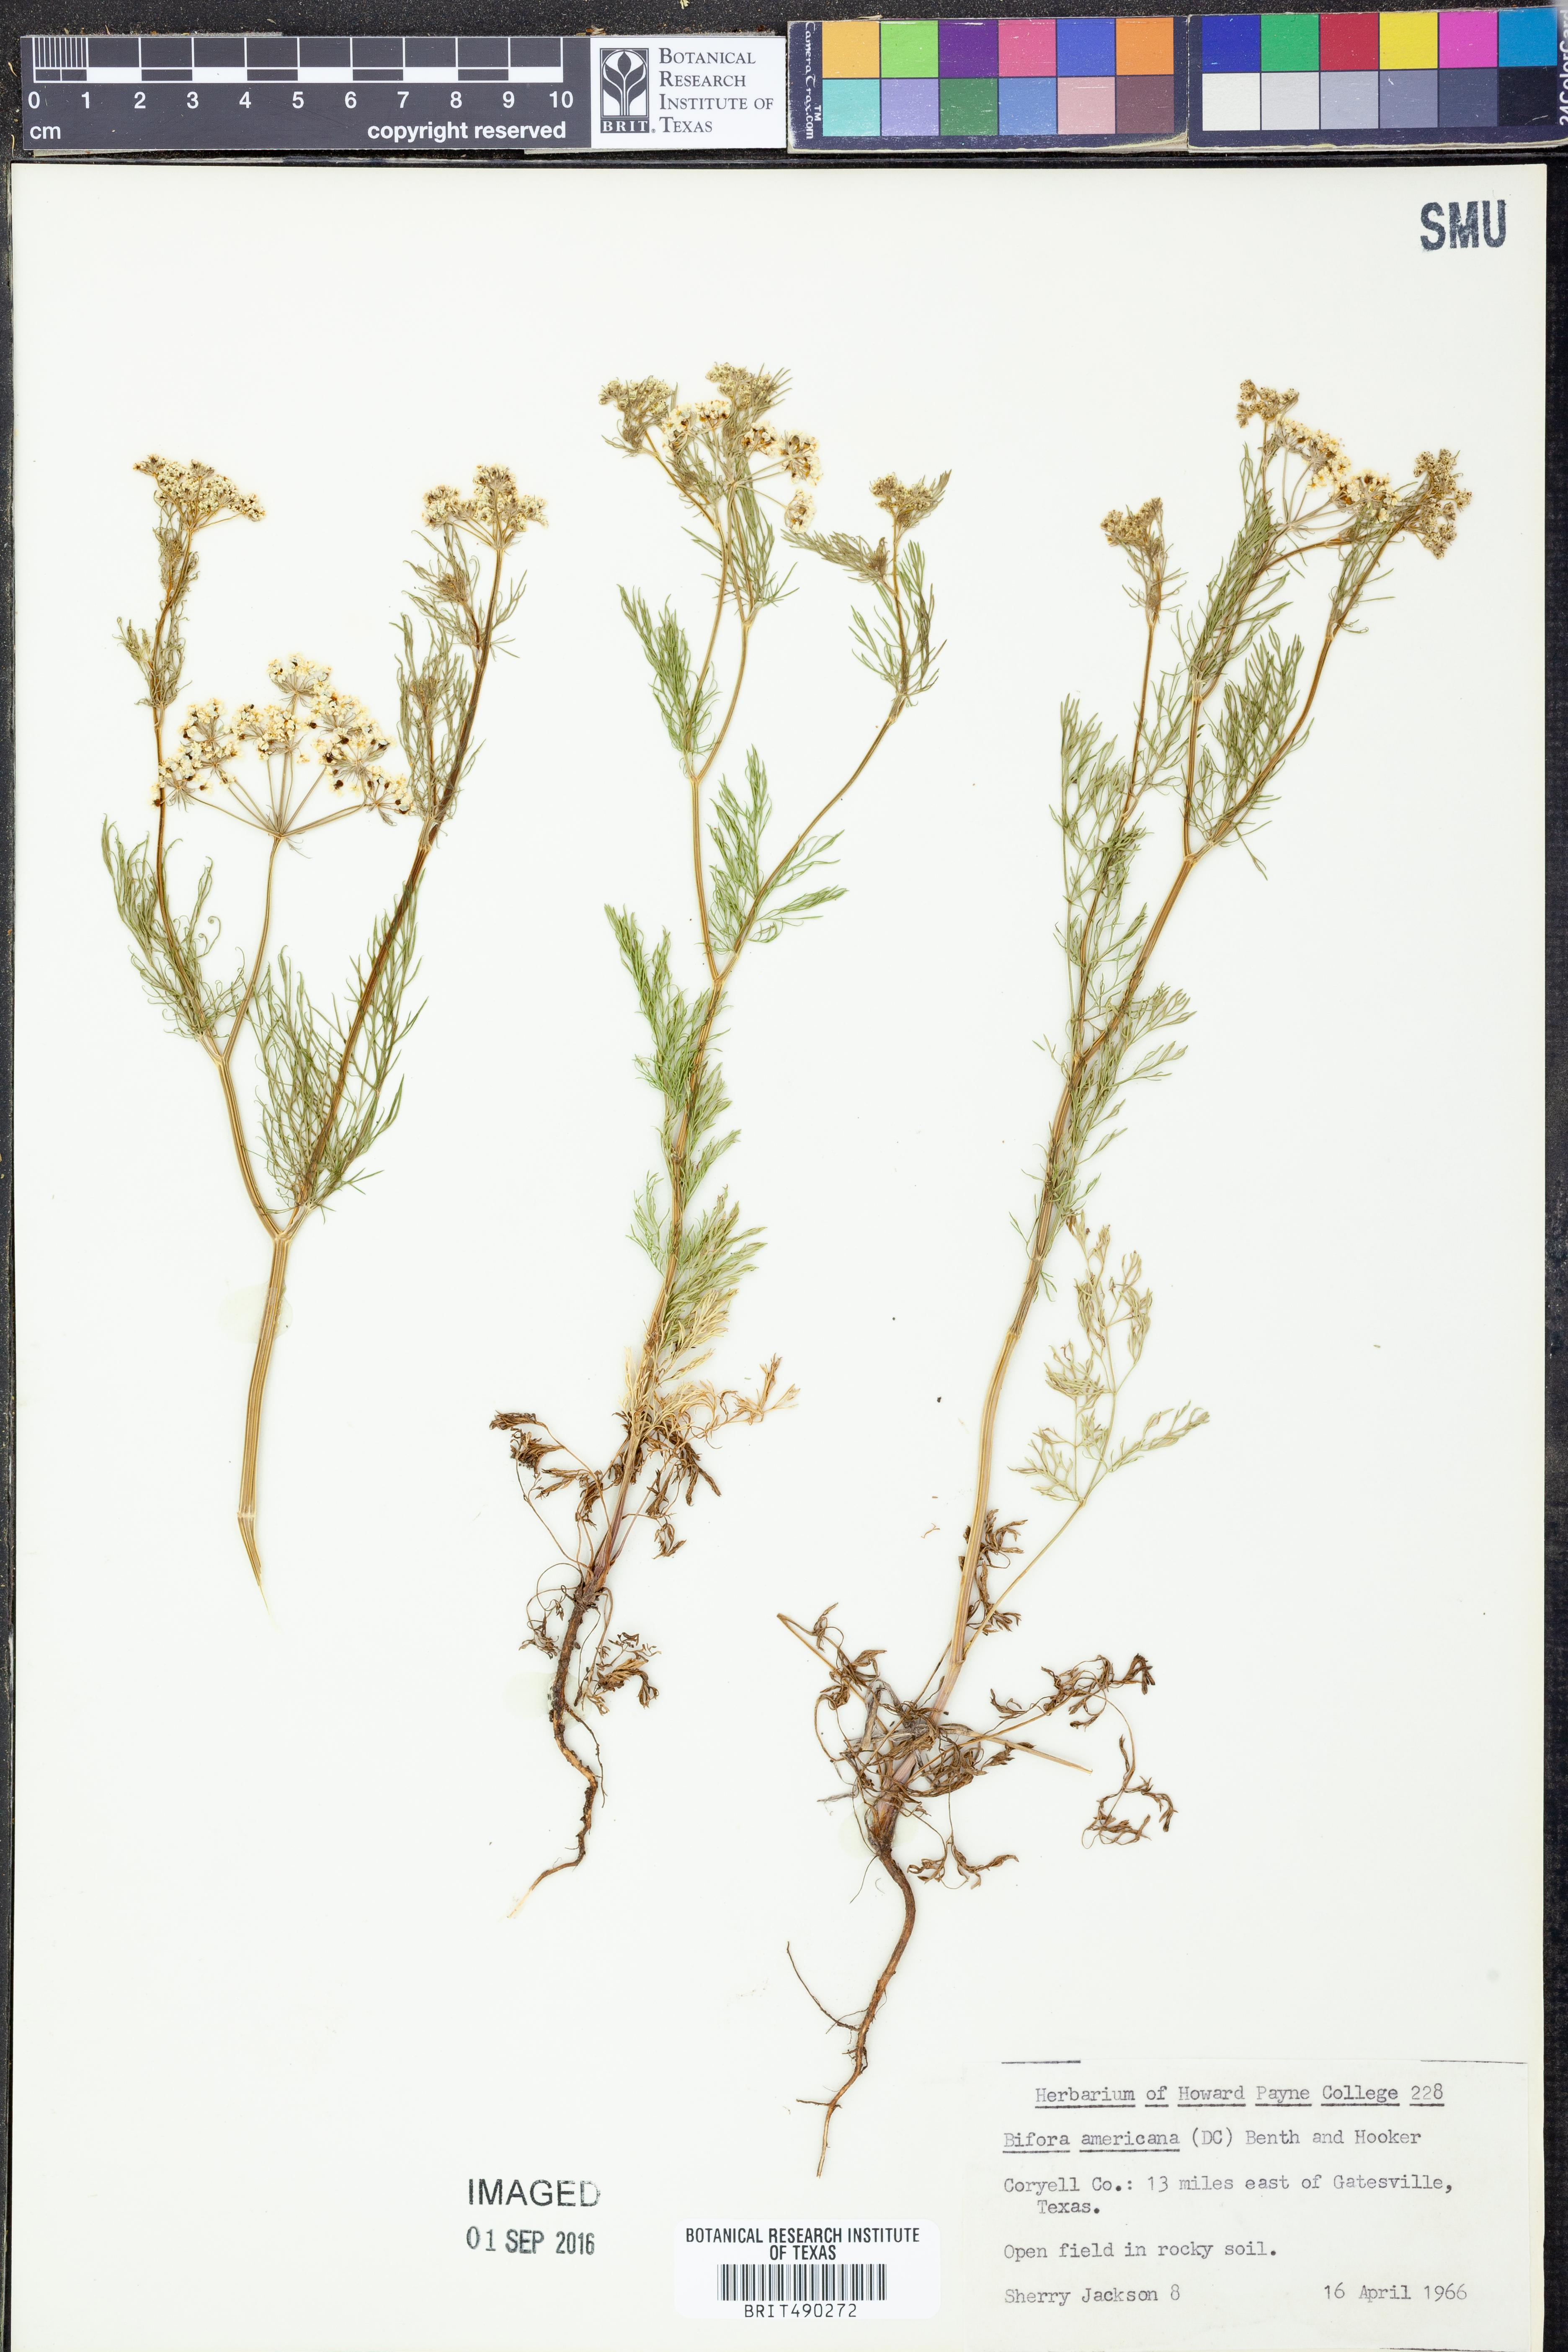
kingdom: Plantae
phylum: Tracheophyta
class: Magnoliopsida
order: Apiales
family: Apiaceae
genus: Atrema
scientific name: Atrema americanum
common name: Prairie-bishop
